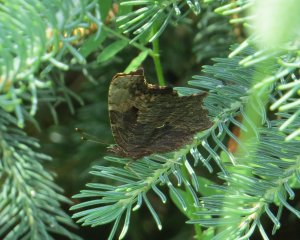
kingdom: Animalia
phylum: Arthropoda
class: Insecta
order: Lepidoptera
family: Nymphalidae
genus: Polygonia
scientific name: Polygonia progne
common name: Gray Comma
